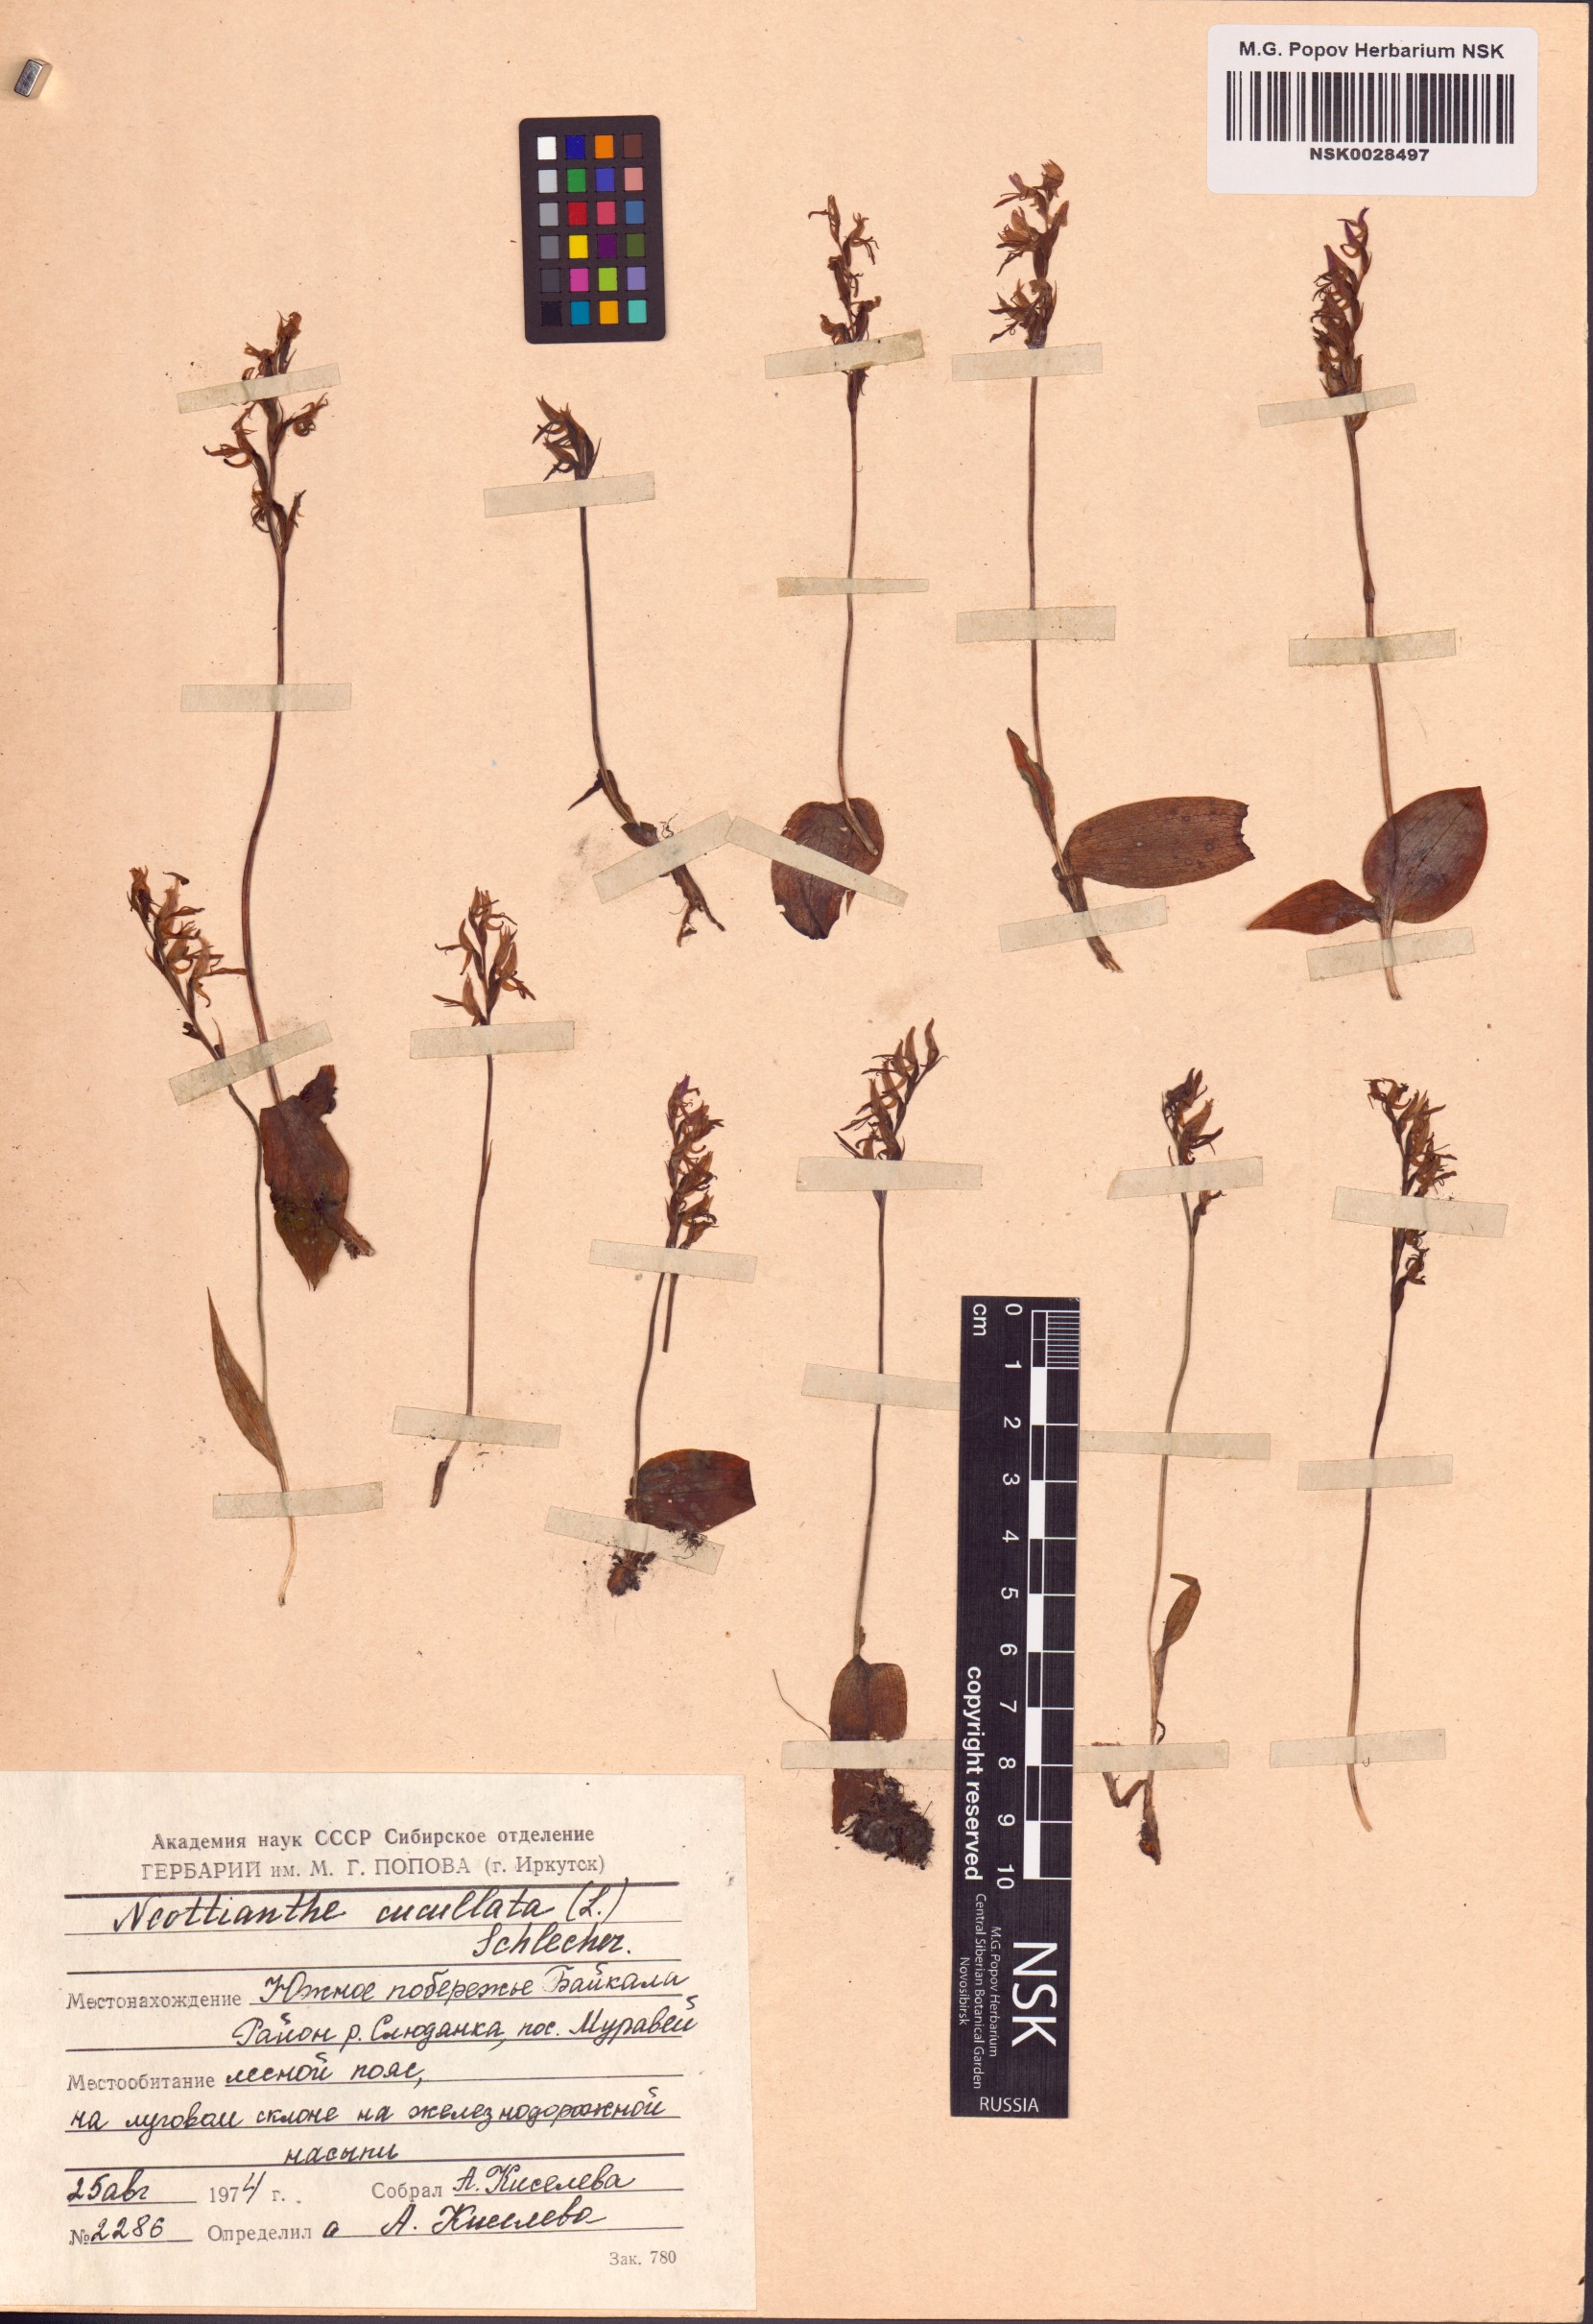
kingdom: Plantae
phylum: Tracheophyta
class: Liliopsida
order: Asparagales
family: Orchidaceae
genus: Hemipilia
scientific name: Hemipilia cucullata
